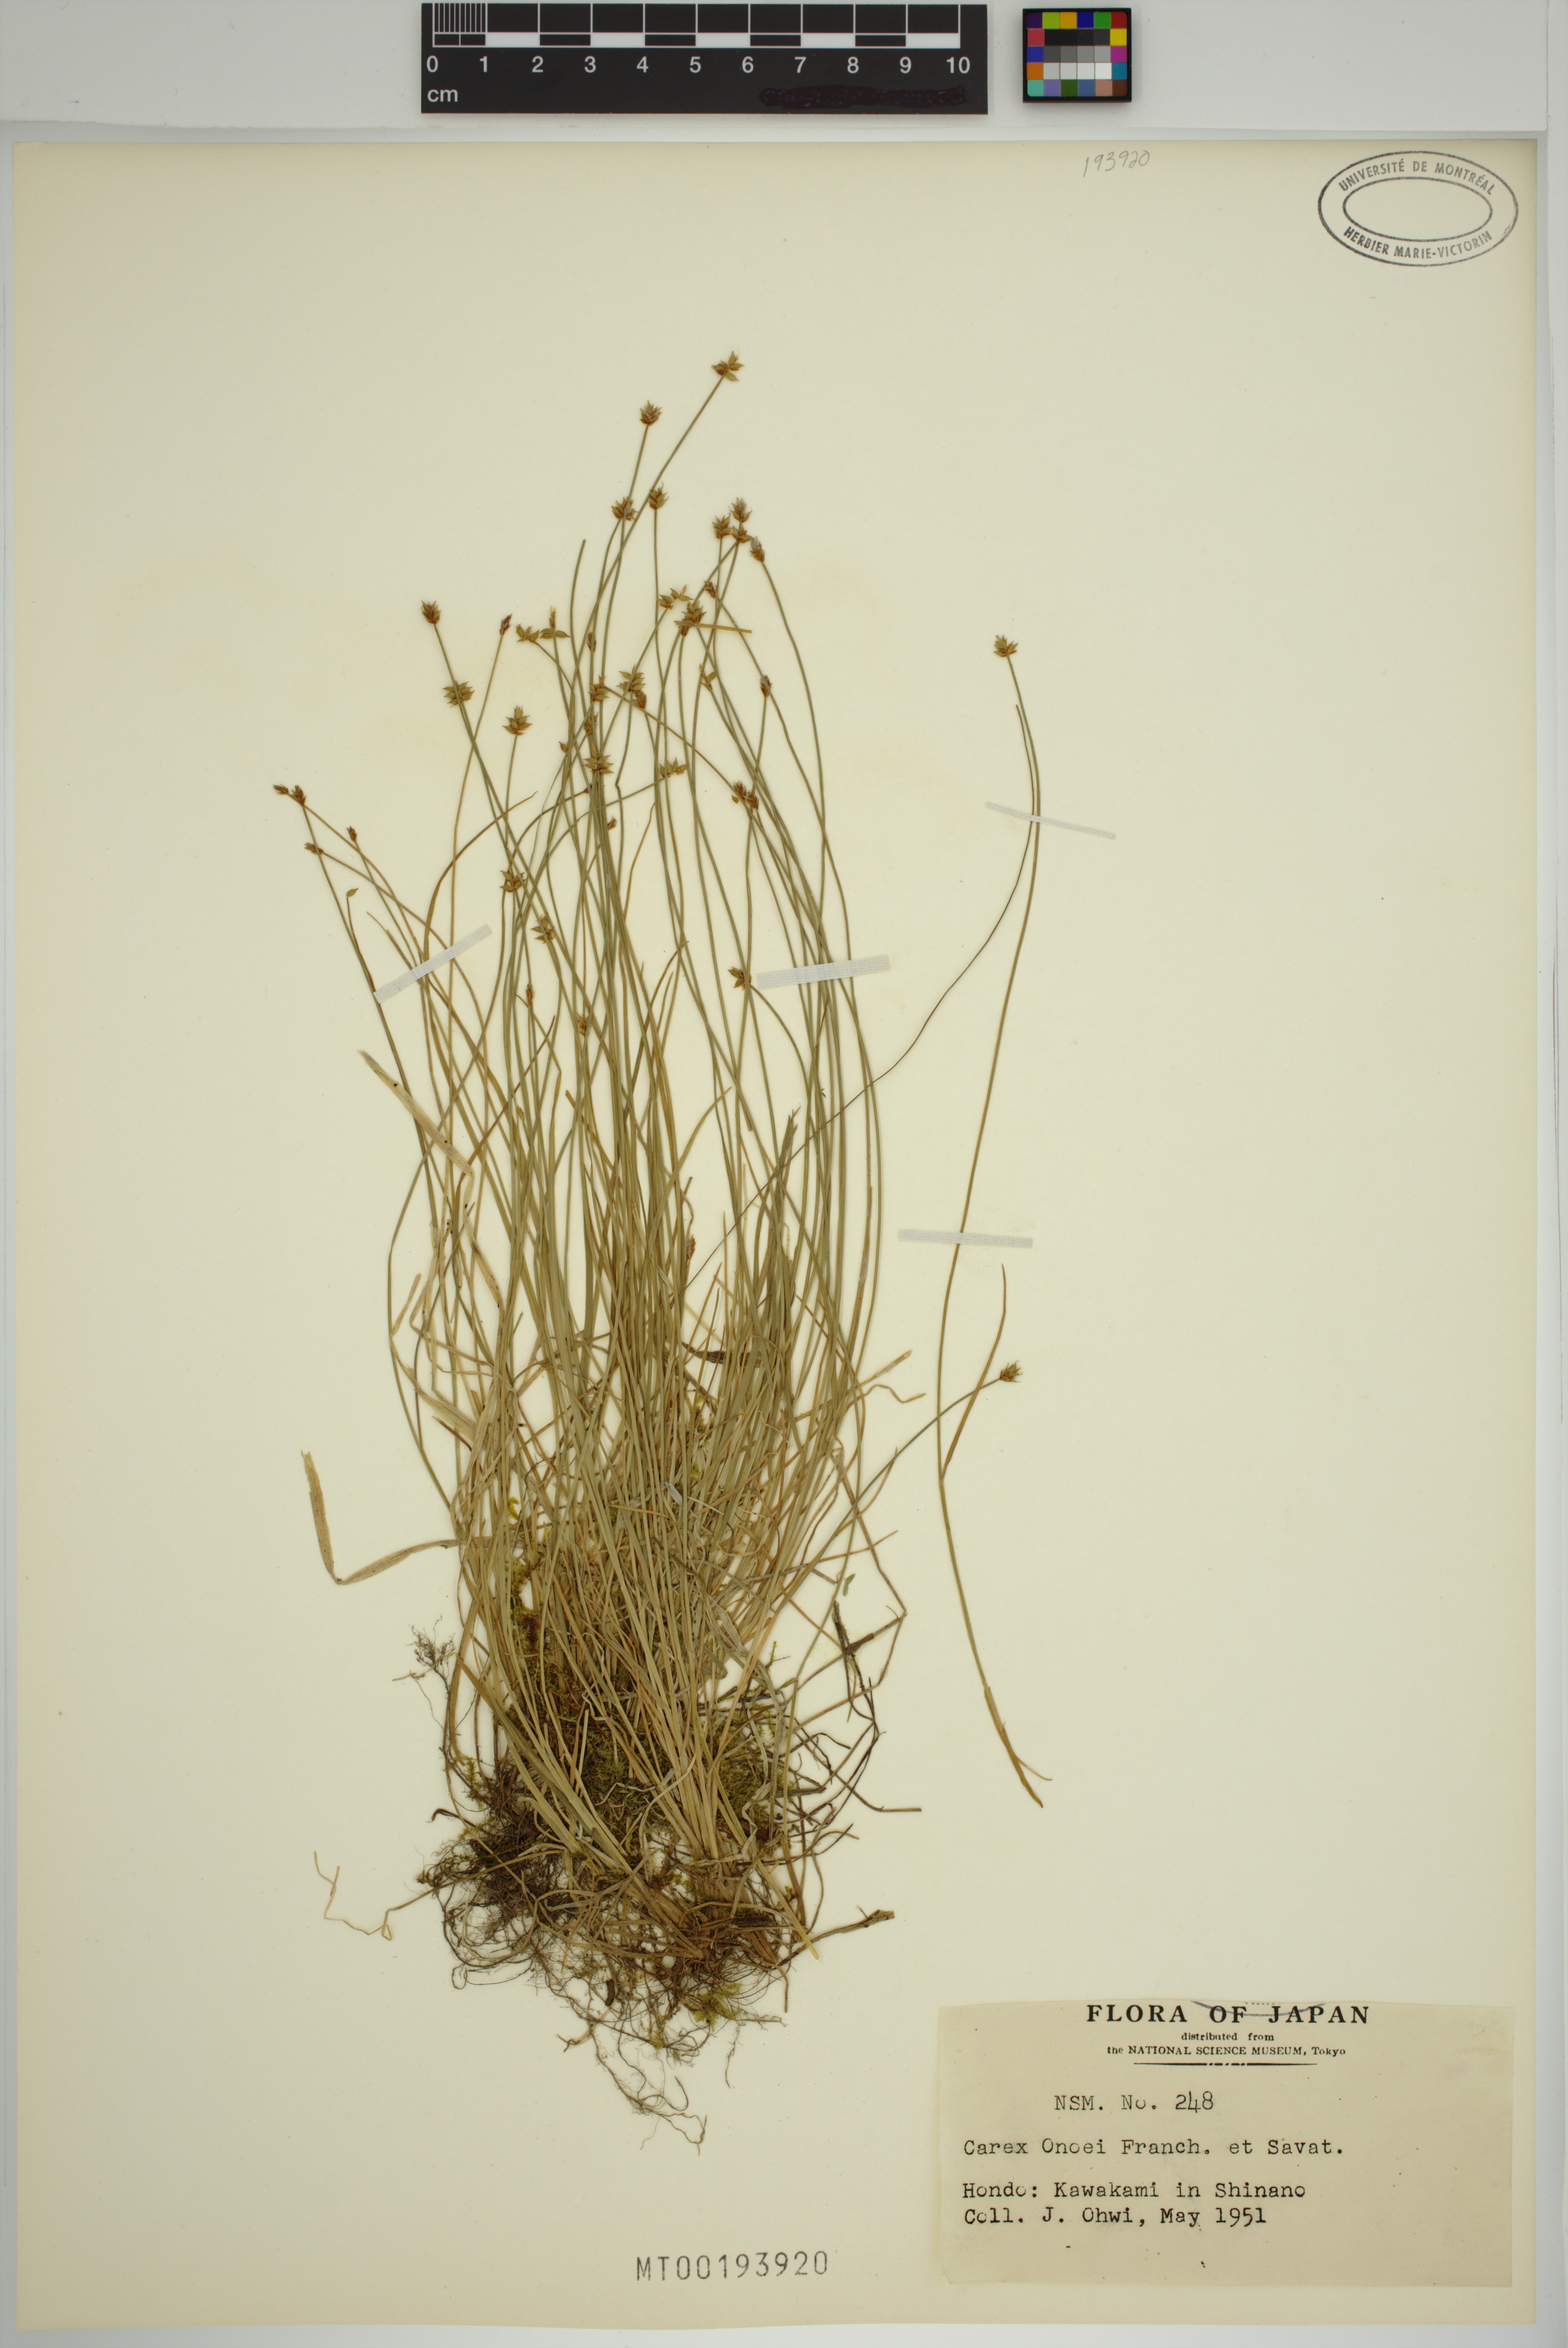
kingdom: Plantae
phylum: Tracheophyta
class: Liliopsida
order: Poales
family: Cyperaceae
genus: Carex
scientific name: Carex onoei
